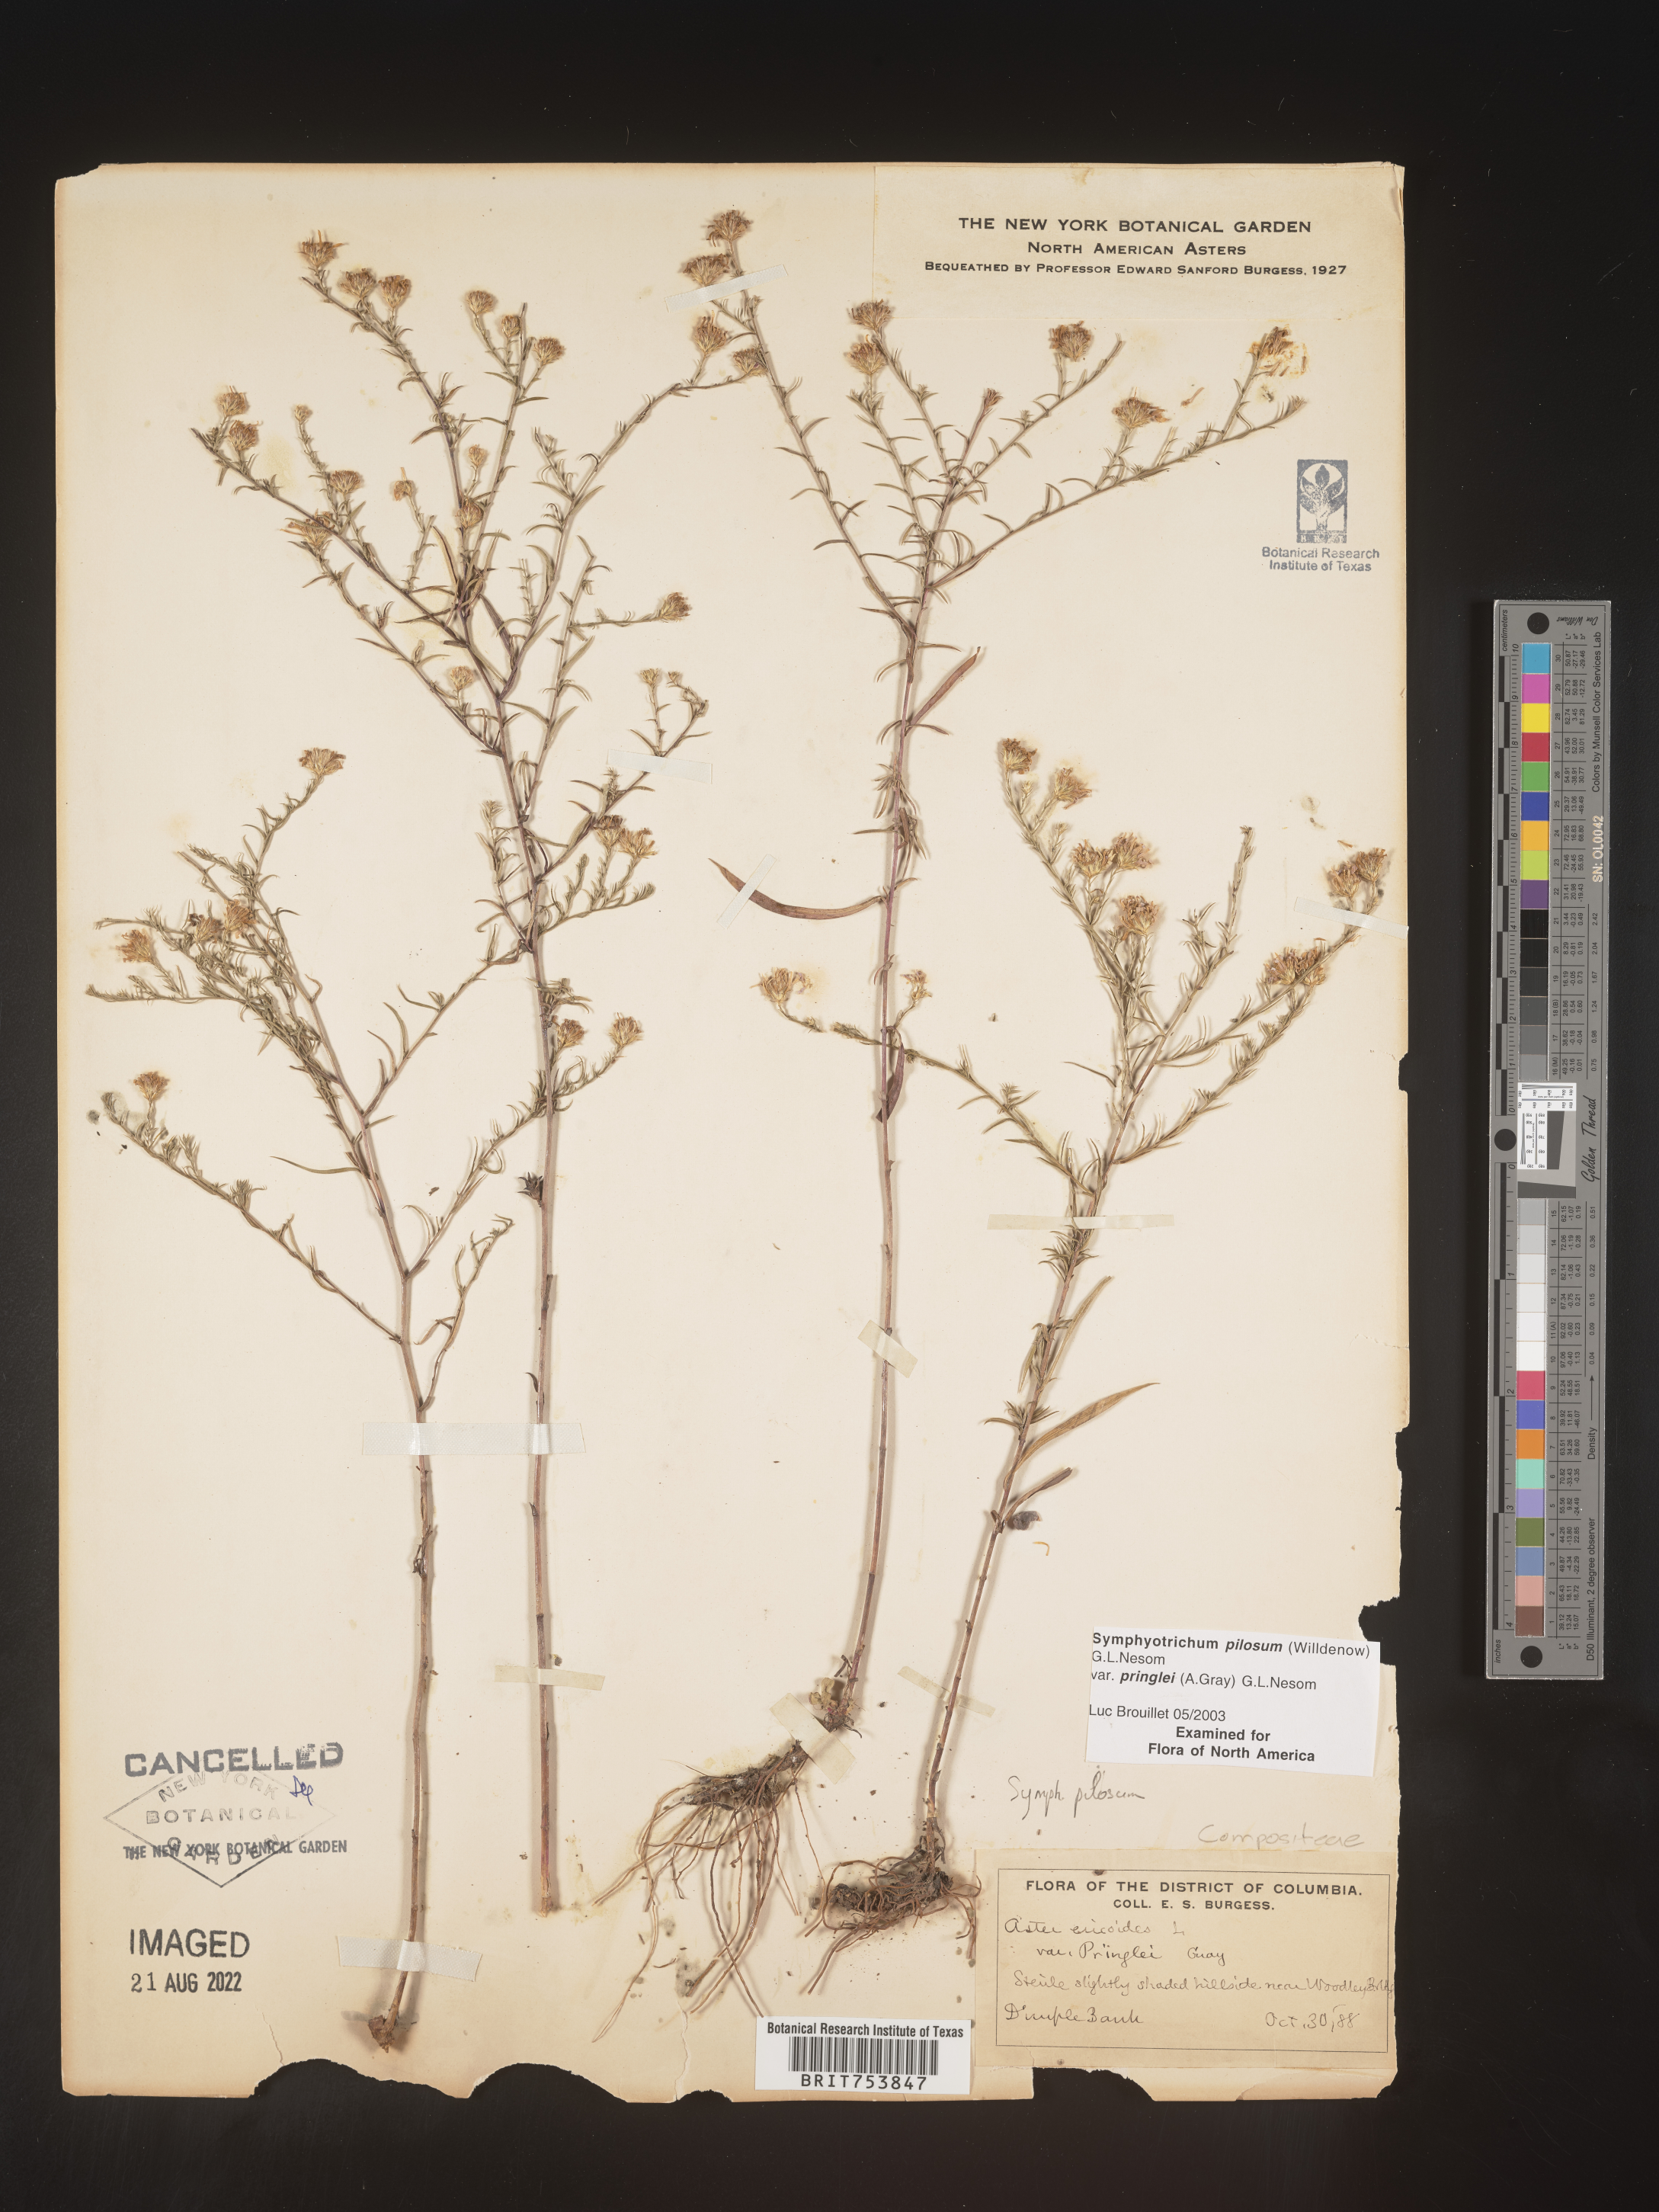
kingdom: Plantae
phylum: Tracheophyta
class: Magnoliopsida
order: Asterales
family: Asteraceae
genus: Symphyotrichum
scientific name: Symphyotrichum pilosum
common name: Awl aster
